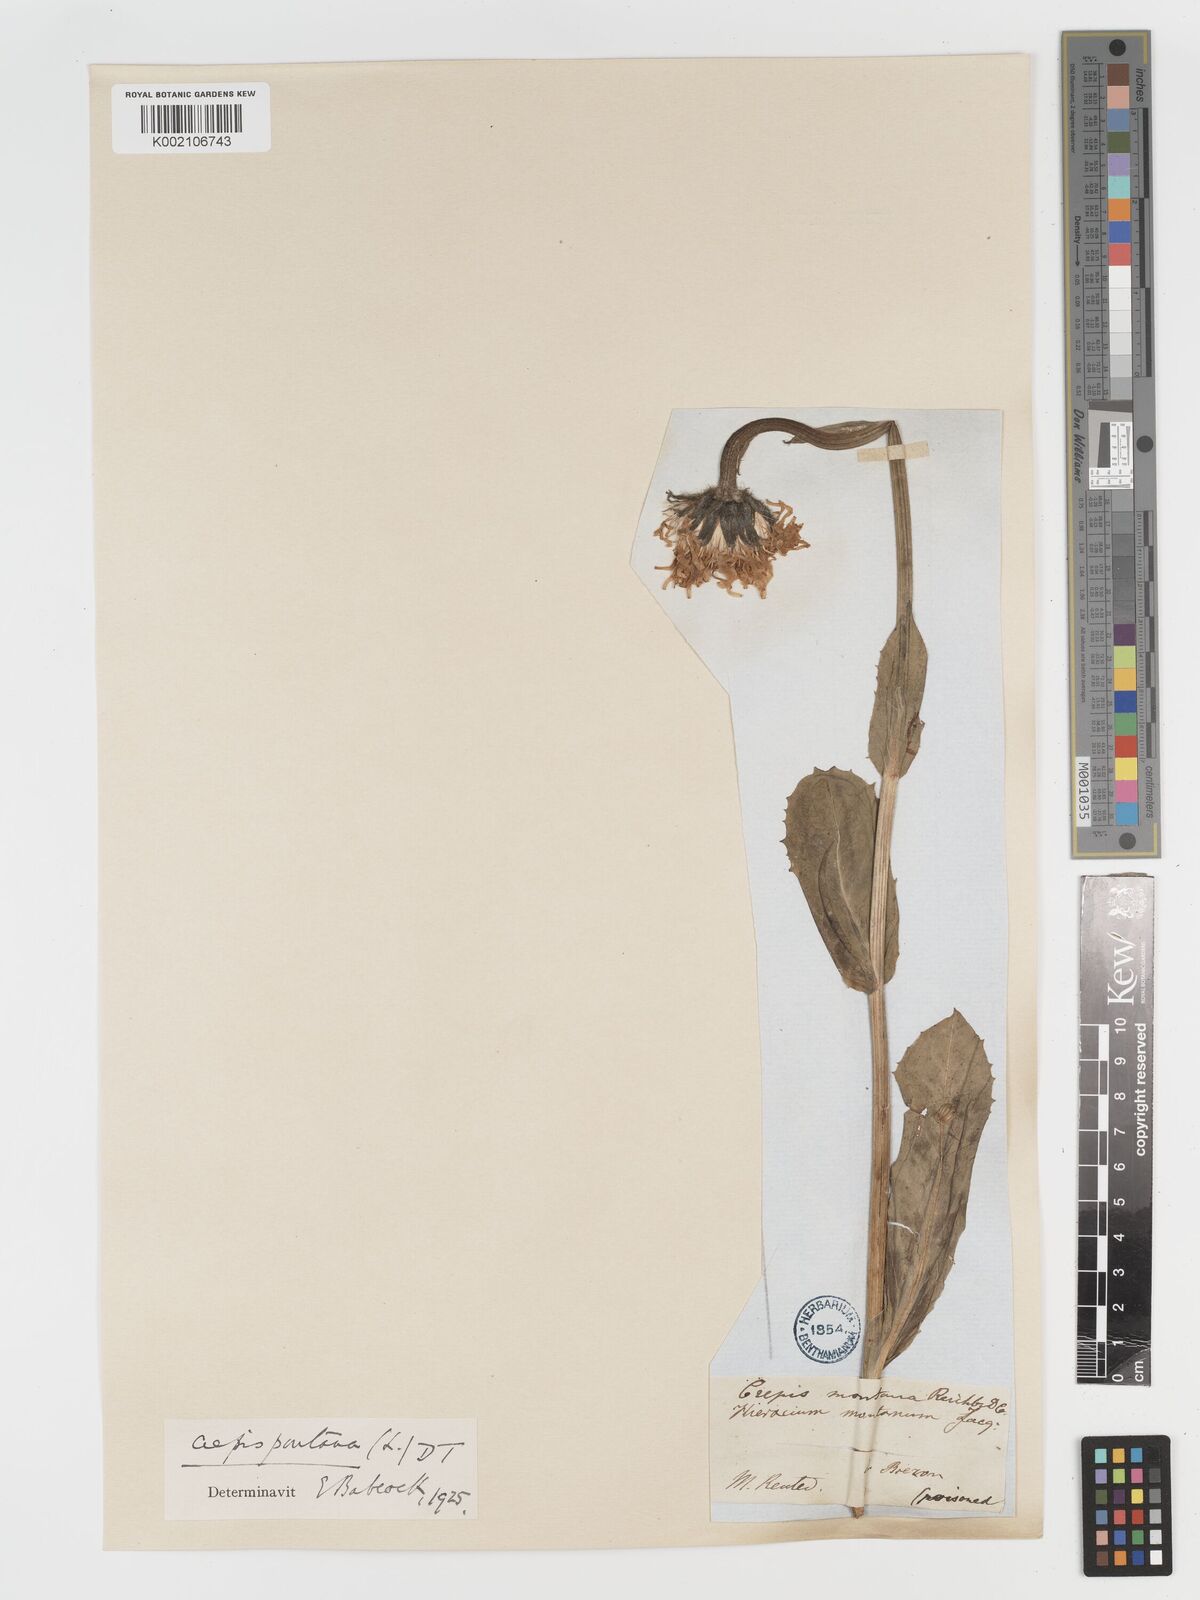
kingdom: Plantae
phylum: Tracheophyta
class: Magnoliopsida
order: Asterales
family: Asteraceae
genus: Crepis
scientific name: Crepis pontana
